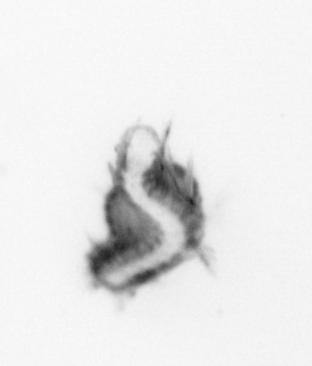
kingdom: Animalia
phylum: Annelida
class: Polychaeta
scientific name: Polychaeta
